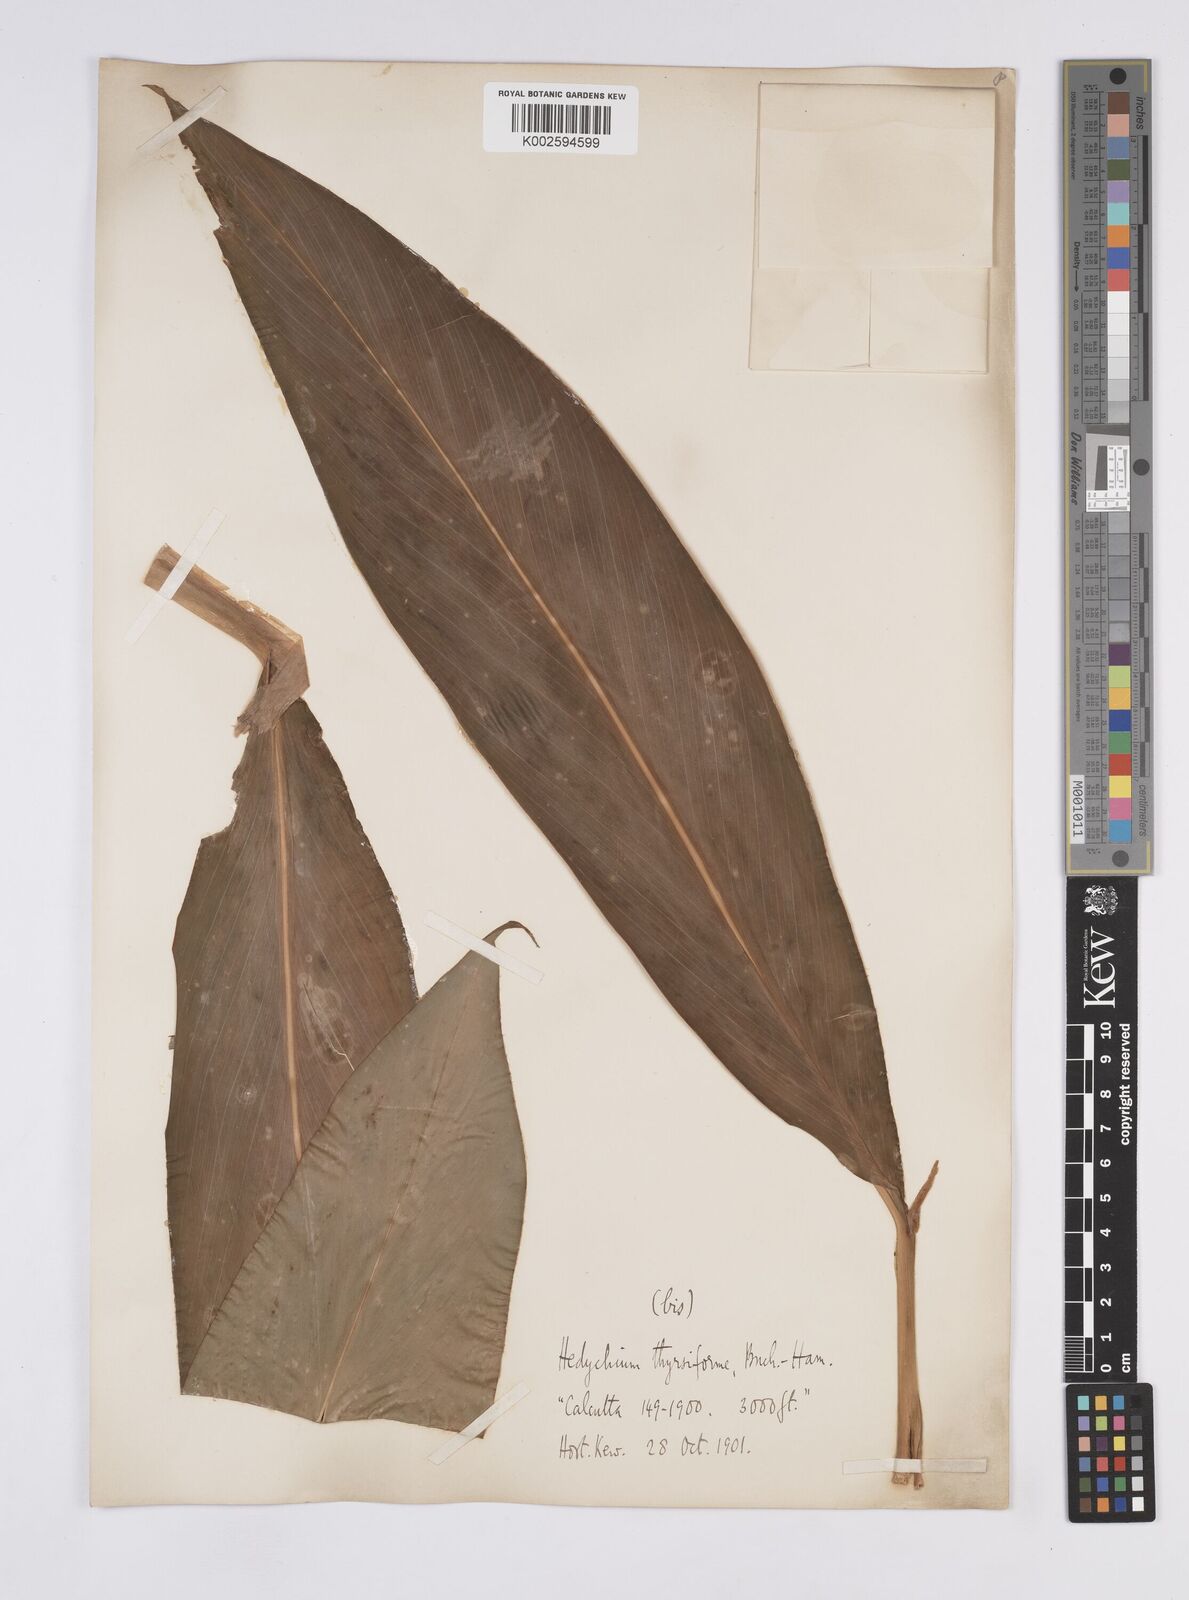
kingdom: Plantae
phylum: Tracheophyta
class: Liliopsida
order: Zingiberales
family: Zingiberaceae
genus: Hedychium
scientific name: Hedychium thyrsiforme
